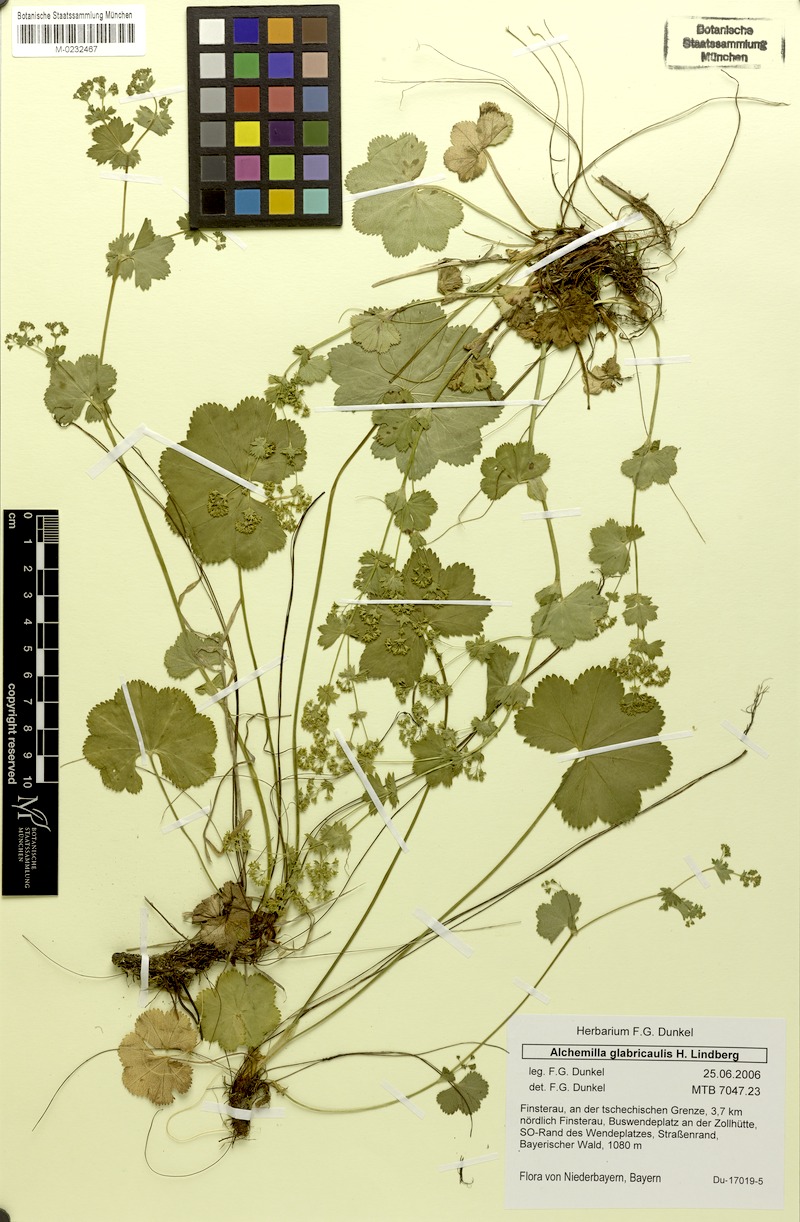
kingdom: Plantae
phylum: Tracheophyta
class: Magnoliopsida
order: Rosales
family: Rosaceae
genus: Alchemilla
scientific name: Alchemilla glabricaulis
